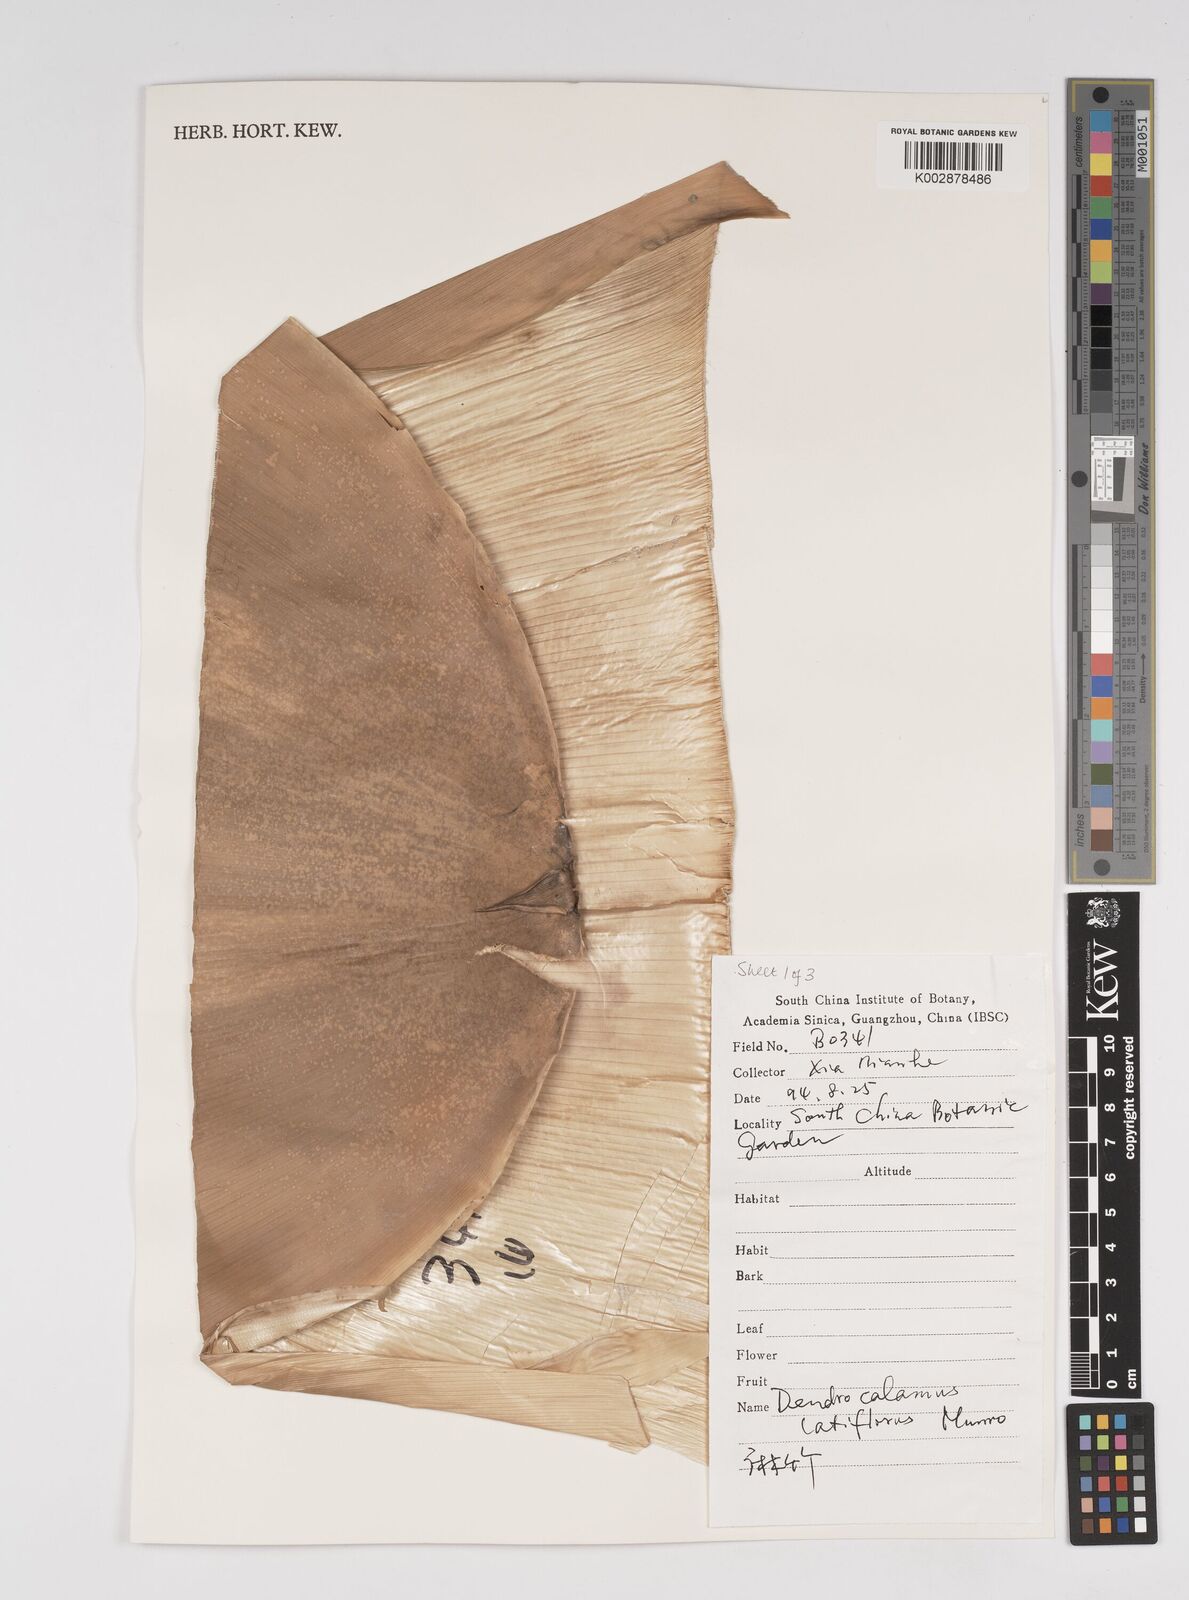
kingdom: Plantae
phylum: Tracheophyta
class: Liliopsida
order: Poales
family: Poaceae
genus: Dendrocalamus
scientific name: Dendrocalamus latiflorus
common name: Giant bamboo
